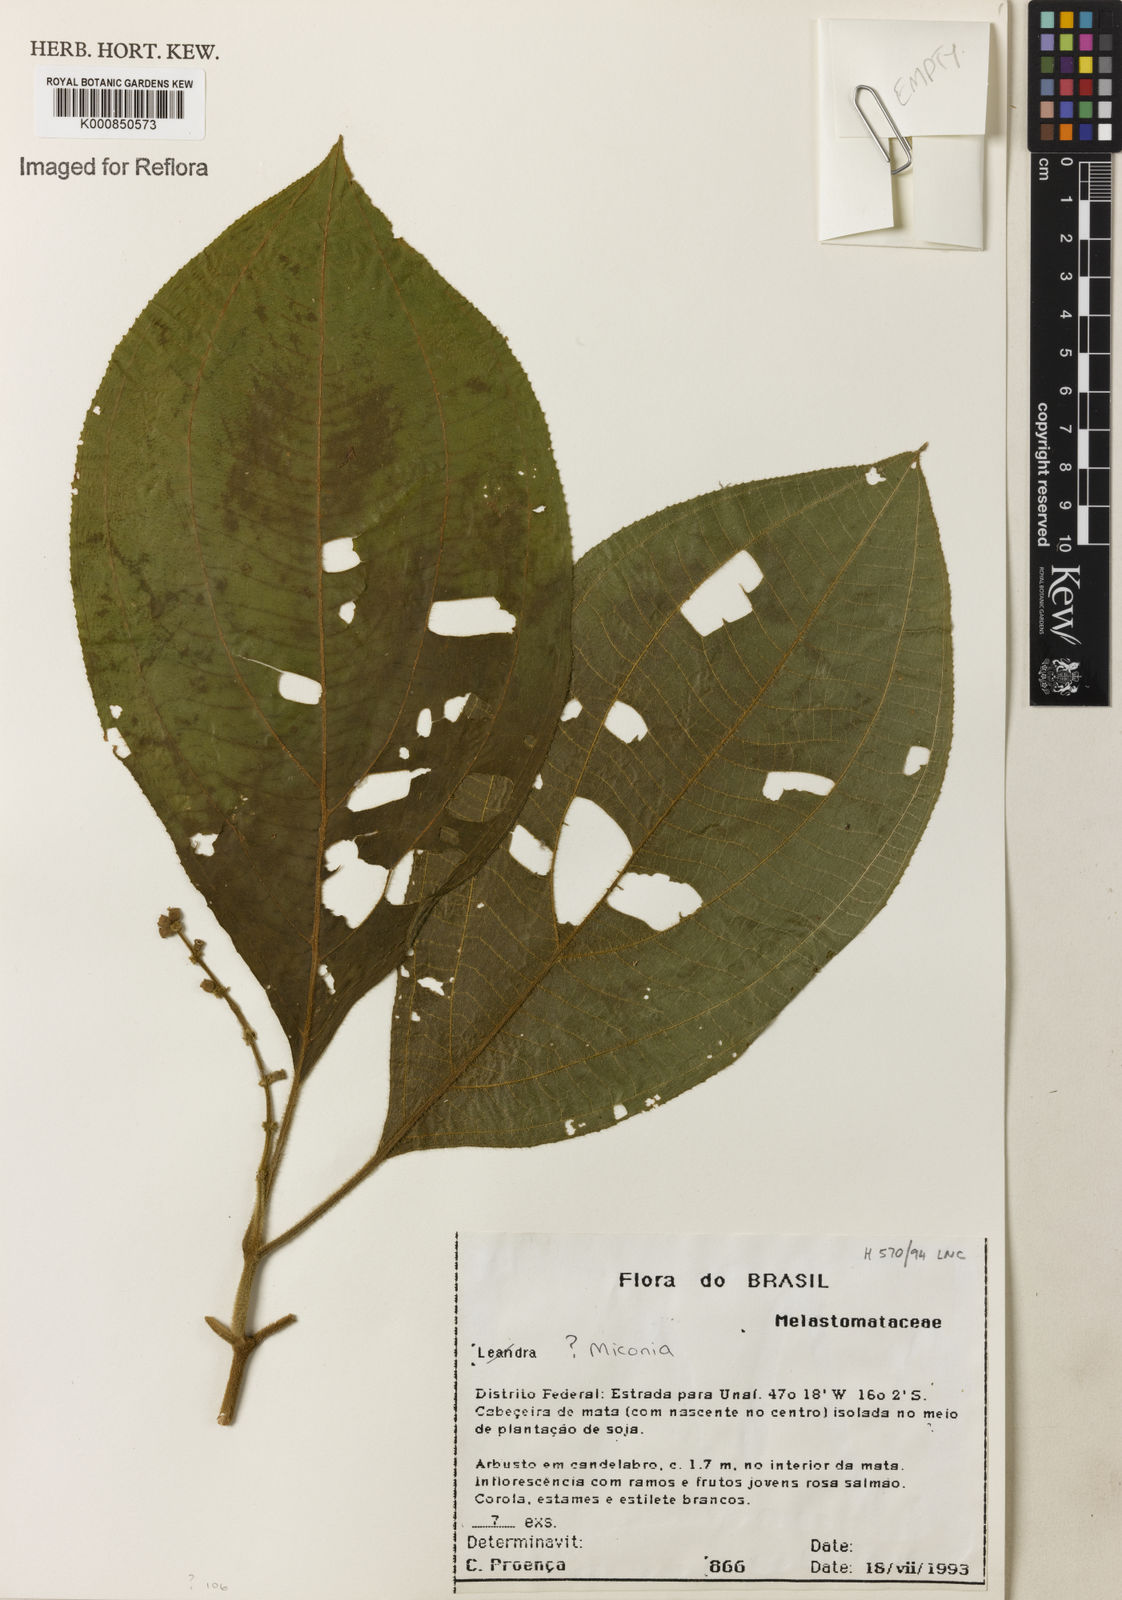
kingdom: Plantae
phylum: Tracheophyta
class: Magnoliopsida
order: Myrtales
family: Melastomataceae
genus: Miconia
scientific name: Miconia nervosa
